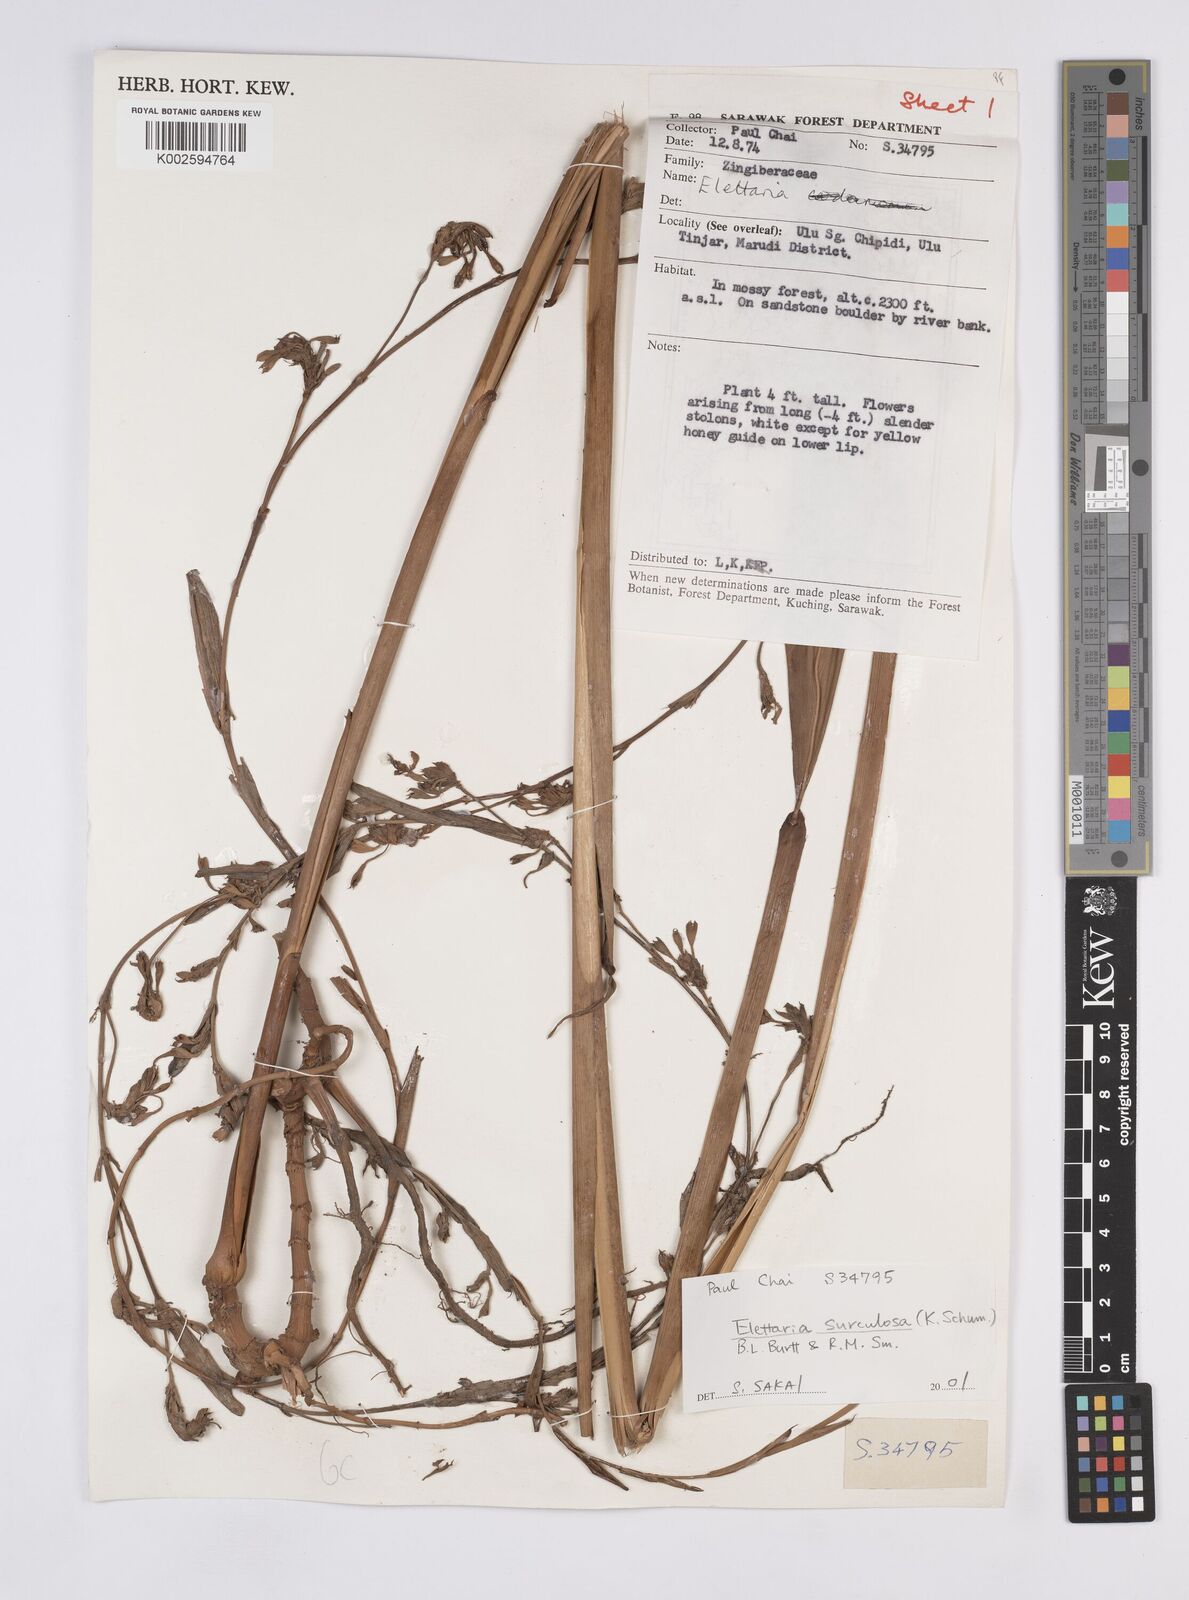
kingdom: Plantae
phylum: Tracheophyta
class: Liliopsida
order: Zingiberales
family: Zingiberaceae
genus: Elettaria
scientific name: Elettaria
